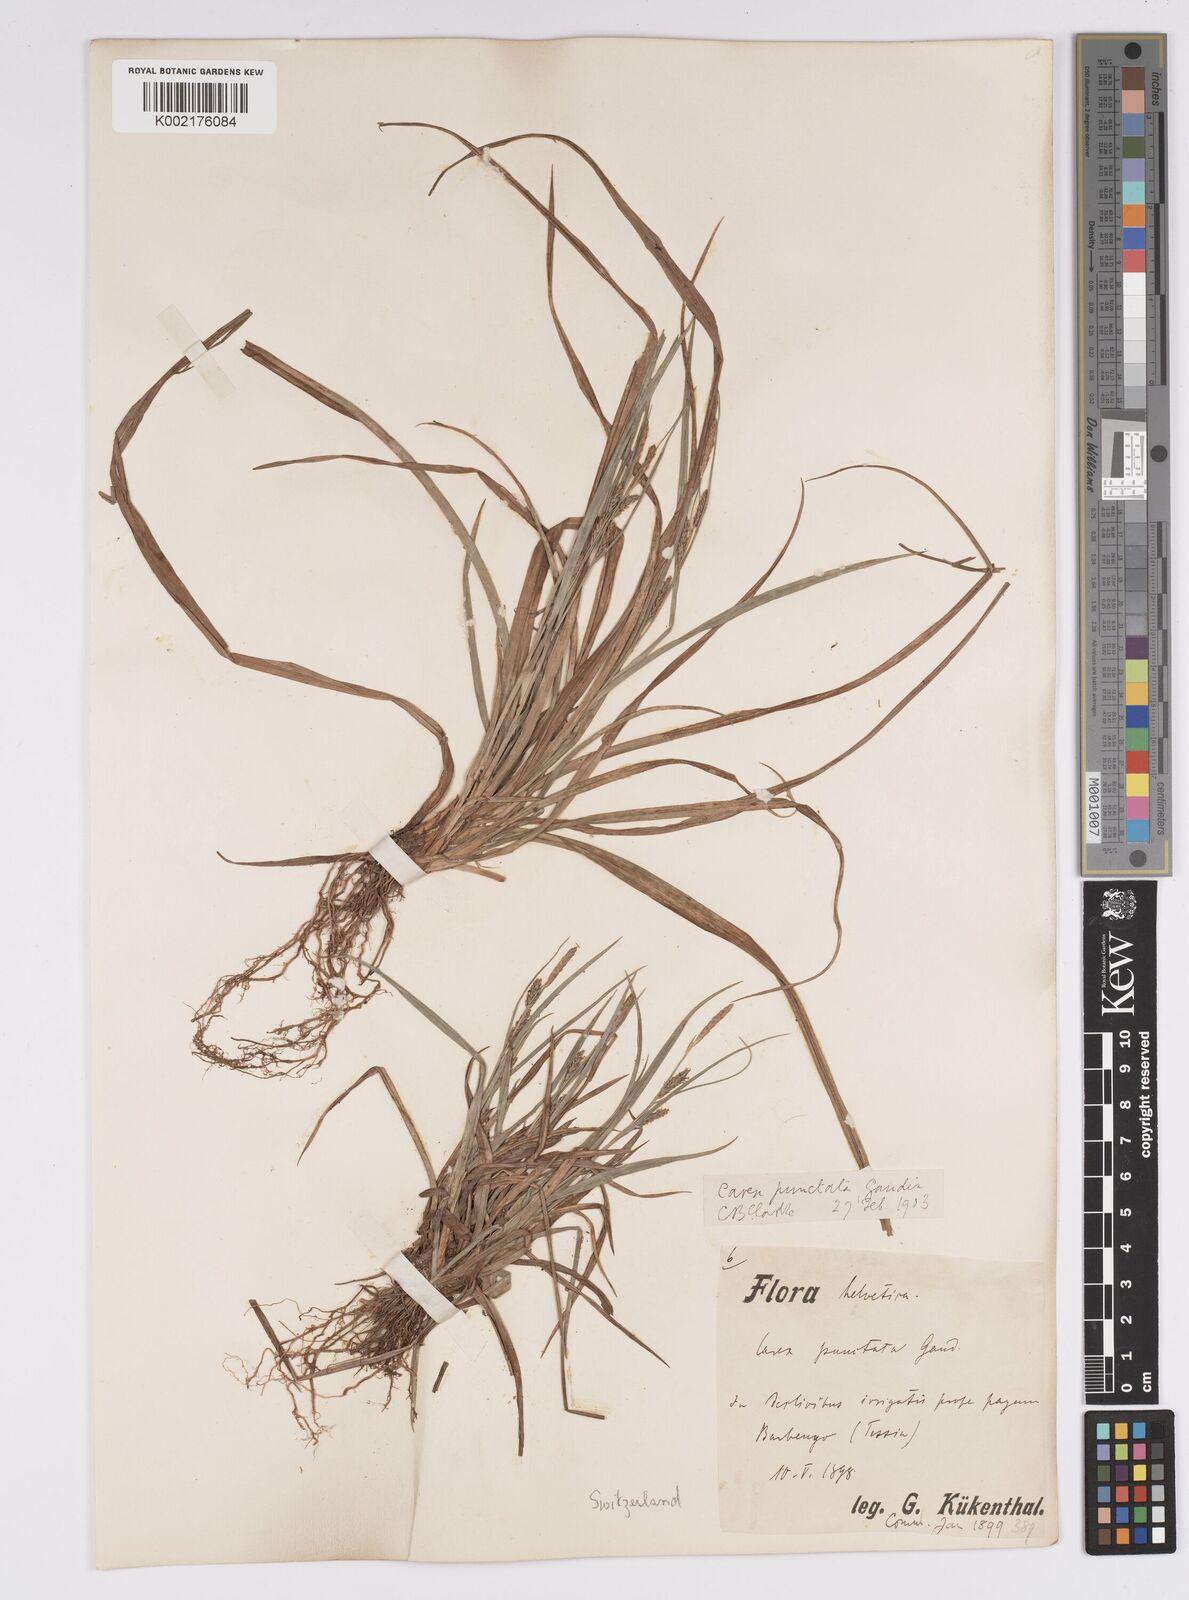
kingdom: Plantae
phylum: Tracheophyta
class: Liliopsida
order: Poales
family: Cyperaceae
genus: Carex
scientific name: Carex punctata
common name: Dotted sedge
